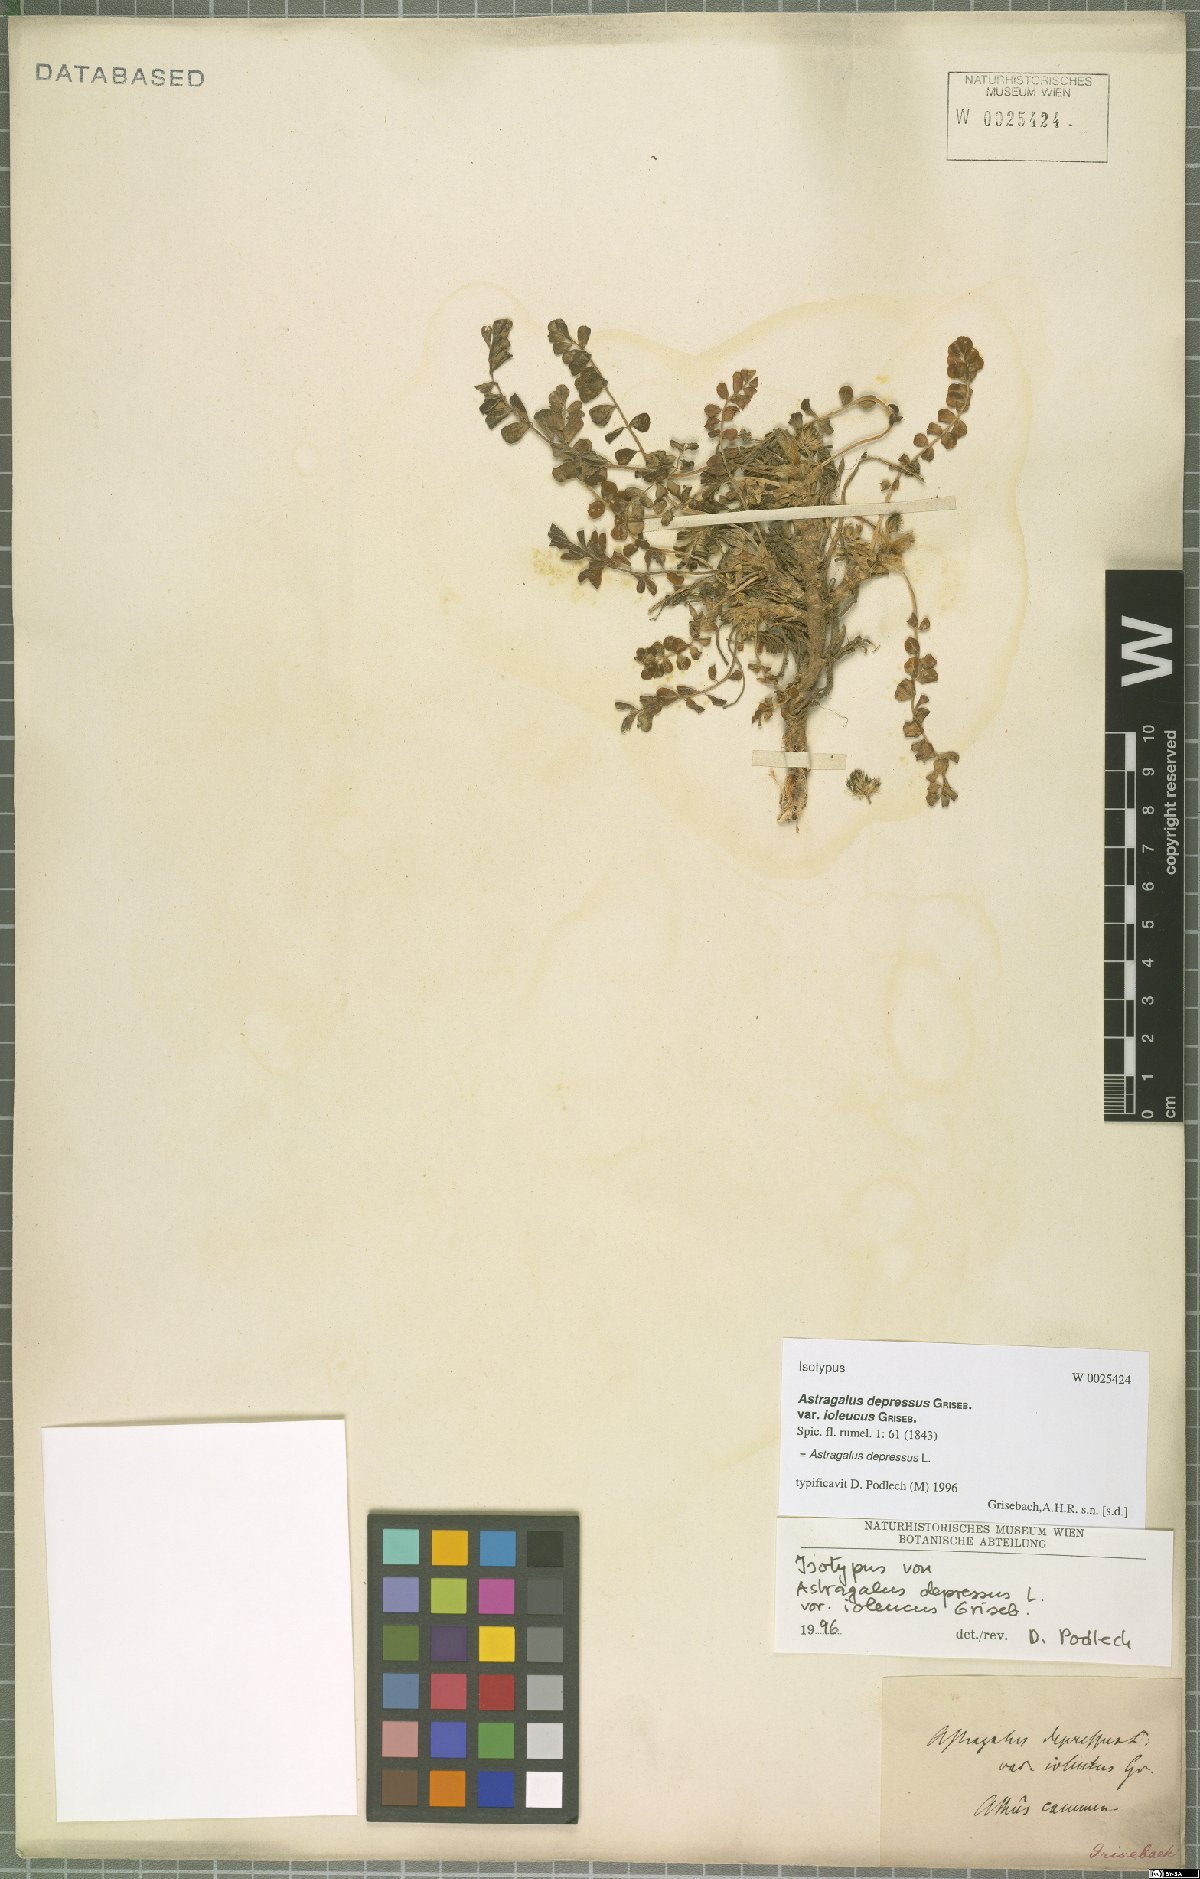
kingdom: Plantae
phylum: Tracheophyta
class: Magnoliopsida
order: Fabales
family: Fabaceae
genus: Astragalus
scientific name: Astragalus depressus
